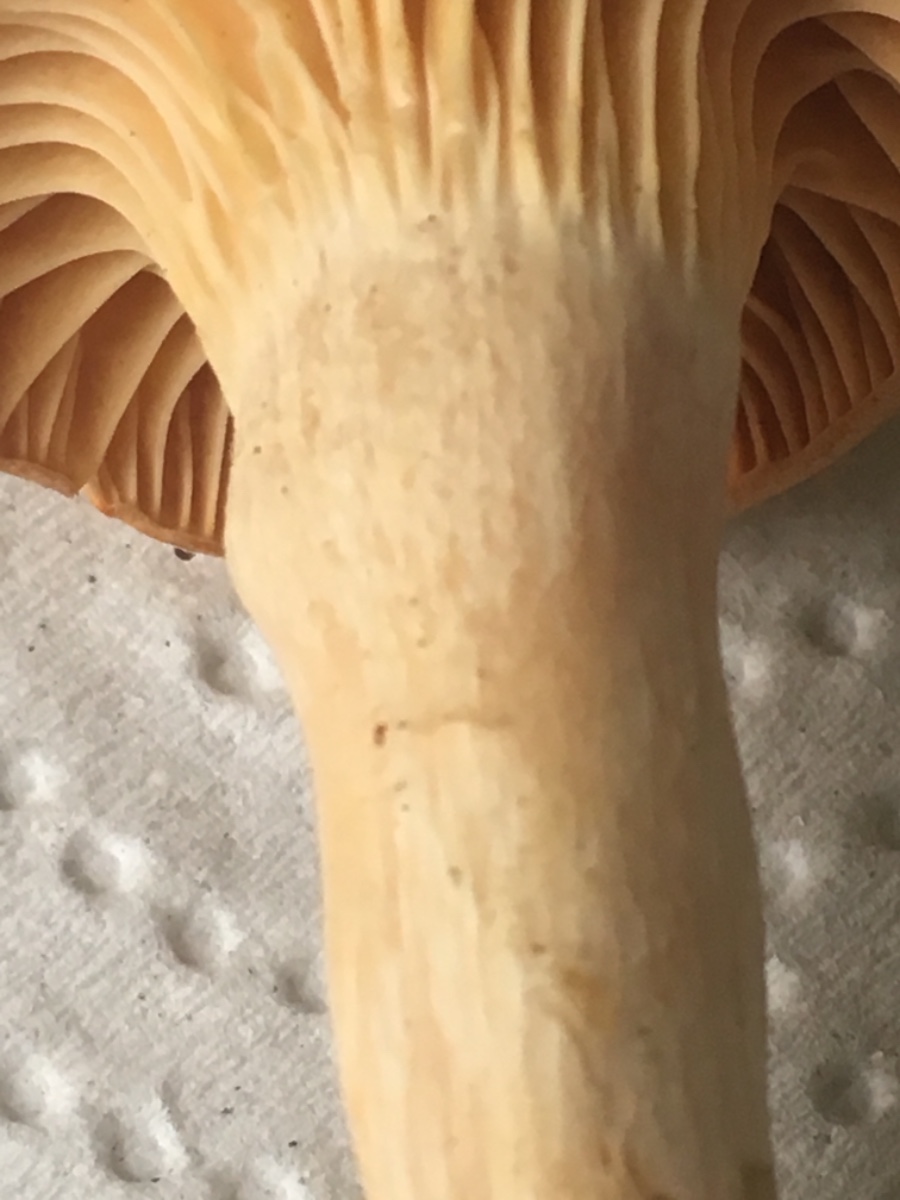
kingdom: Fungi
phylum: Basidiomycota
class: Agaricomycetes
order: Agaricales
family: Hygrophoraceae
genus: Cuphophyllus
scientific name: Cuphophyllus pratensis
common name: eng-vokshat
